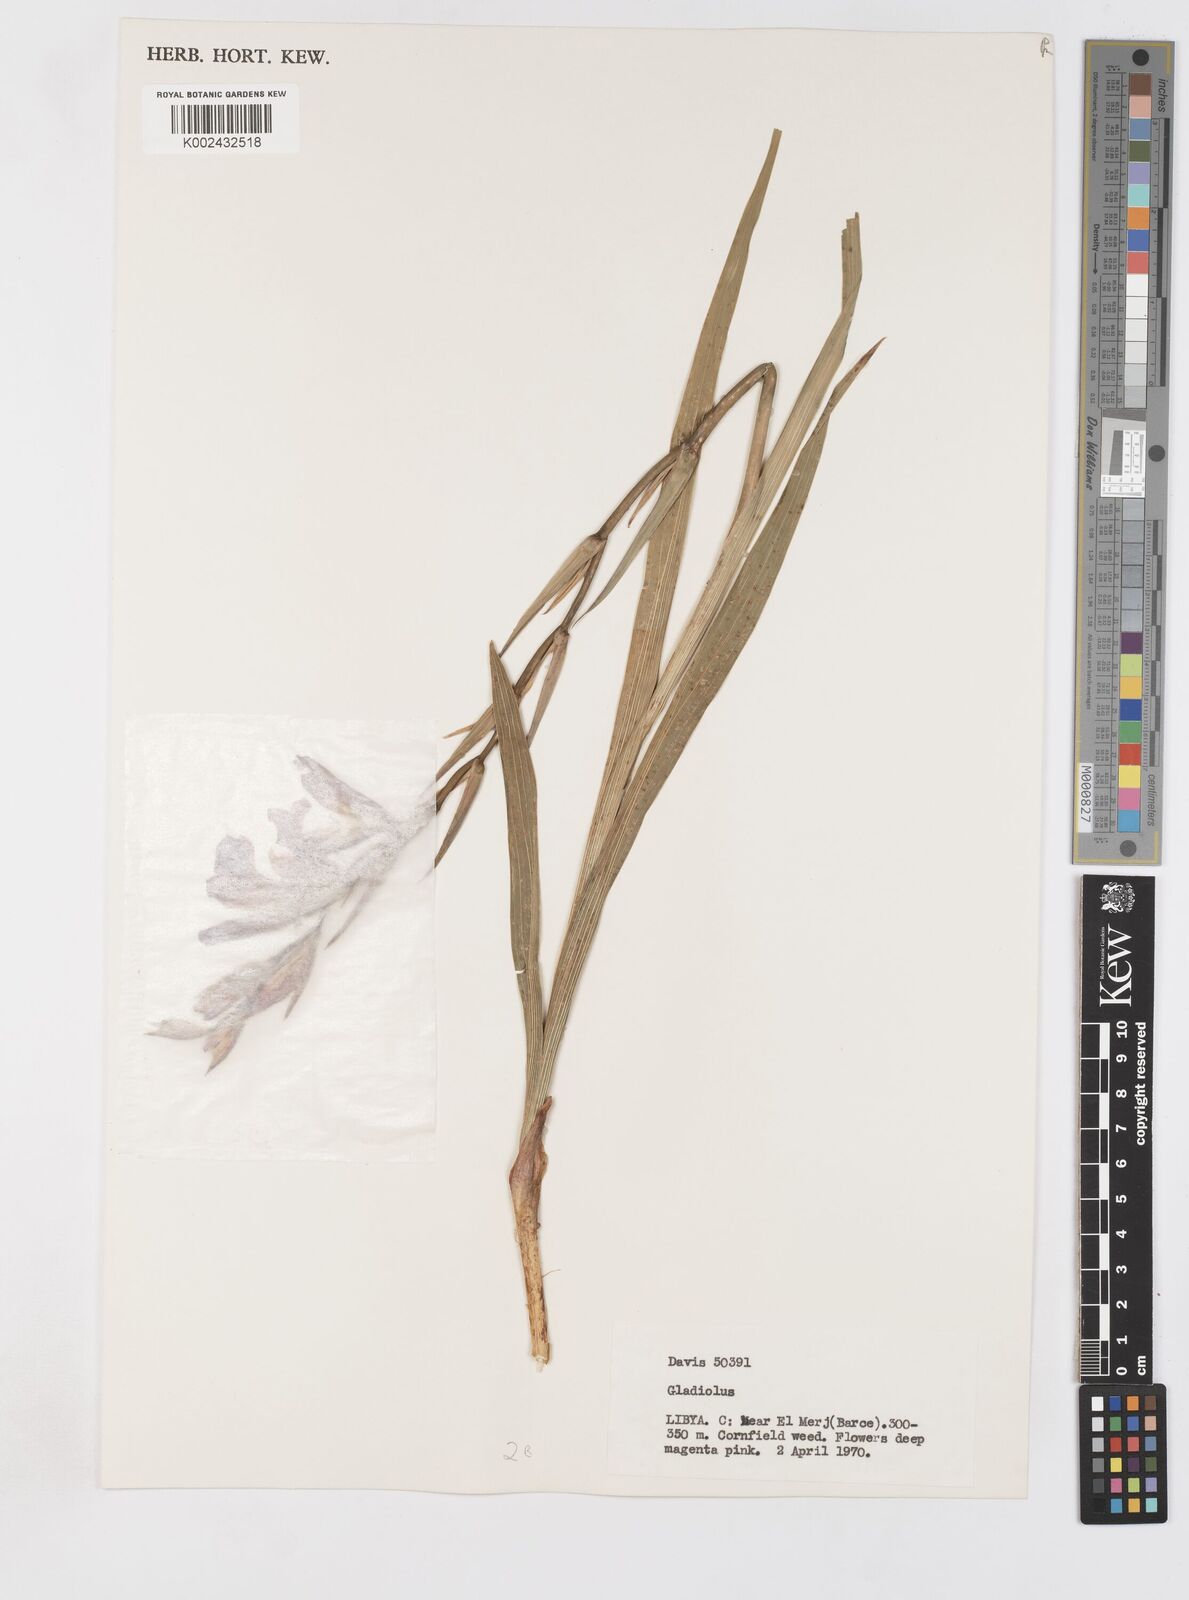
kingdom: Plantae
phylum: Tracheophyta
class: Liliopsida
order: Asparagales
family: Iridaceae
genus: Gladiolus
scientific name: Gladiolus
